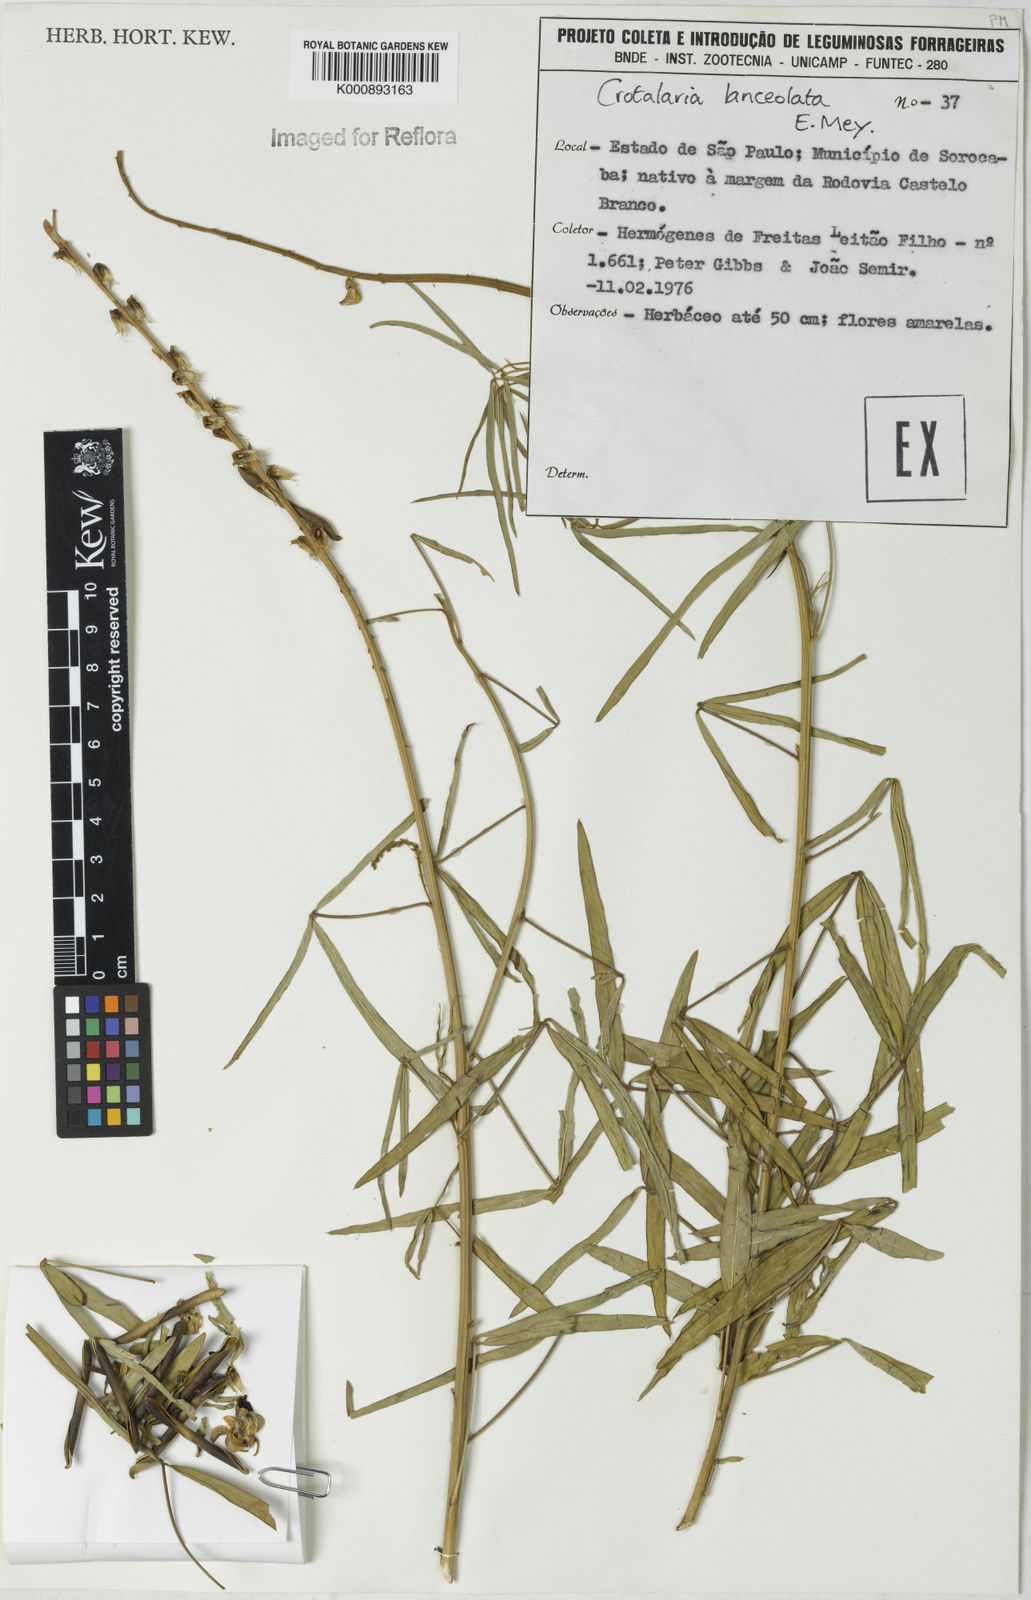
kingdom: Plantae
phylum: Tracheophyta
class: Magnoliopsida
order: Fabales
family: Fabaceae
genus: Crotalaria
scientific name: Crotalaria lanceolata
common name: Lanceleaf rattlebox
